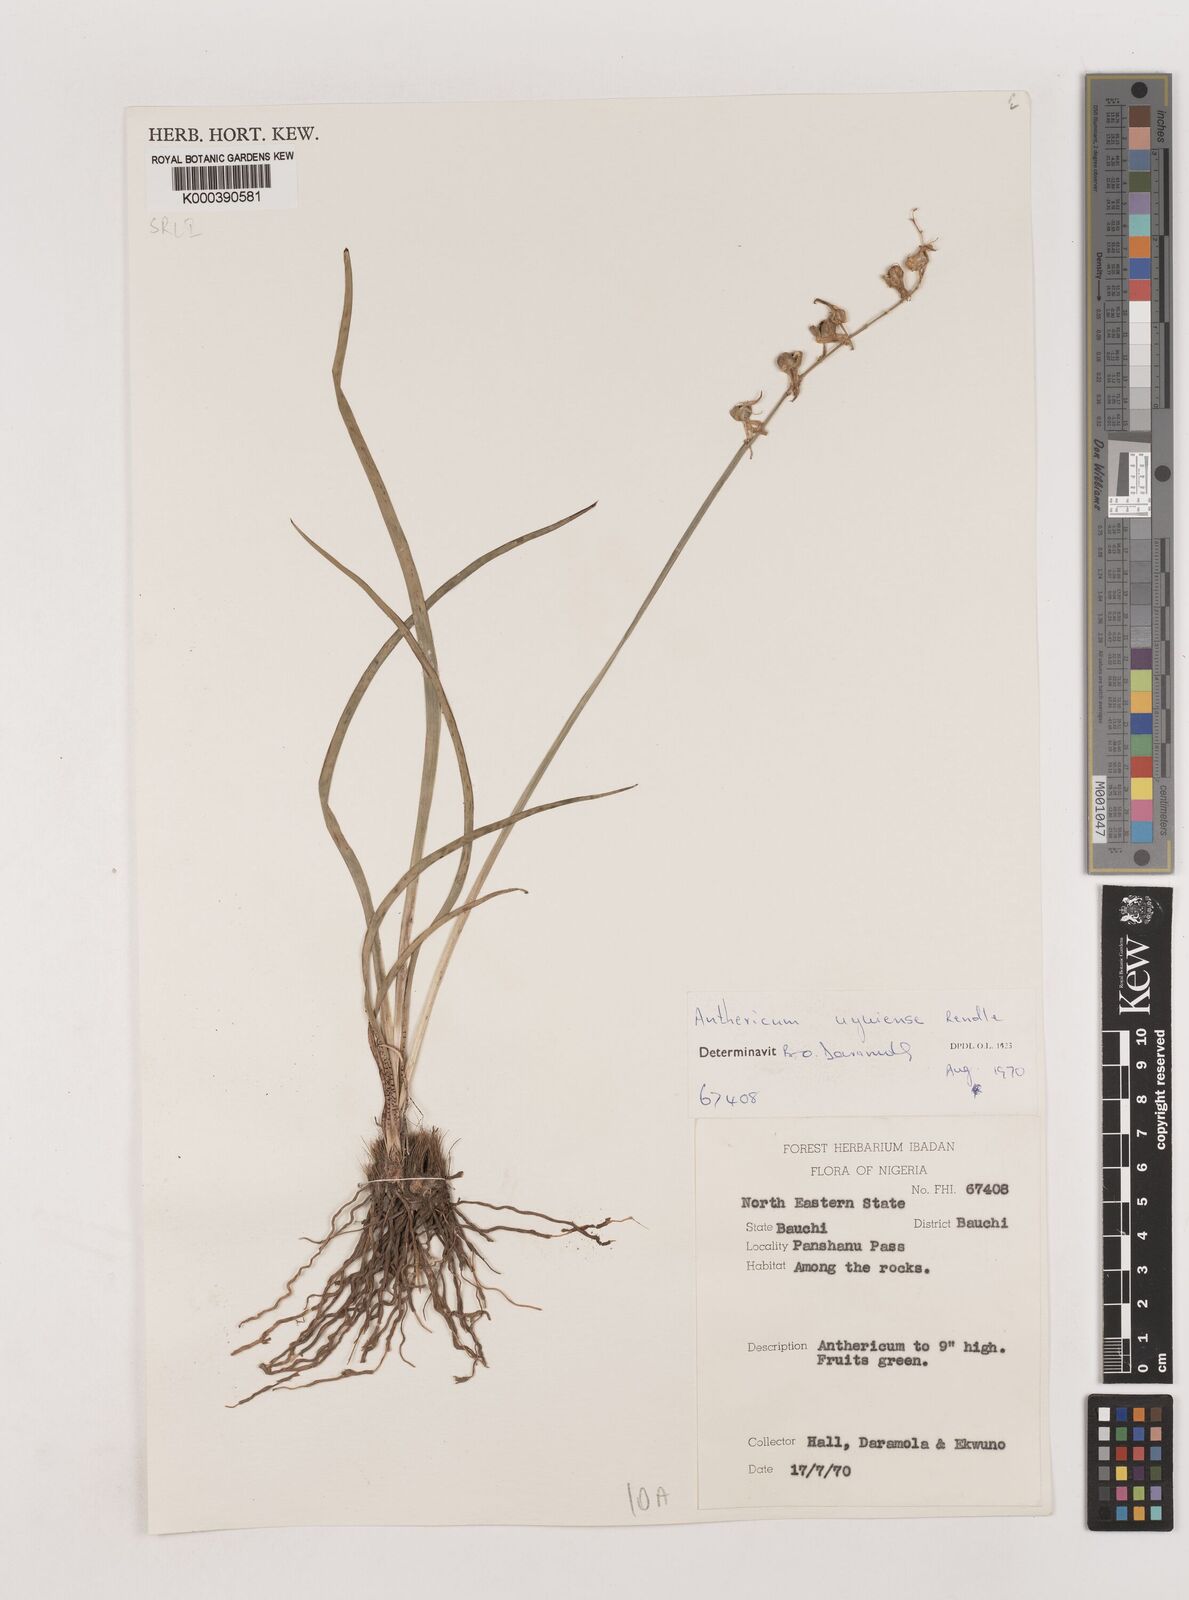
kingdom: Plantae
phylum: Tracheophyta
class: Liliopsida
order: Asparagales
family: Asparagaceae
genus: Chlorophytum
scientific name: Chlorophytum cameronii
